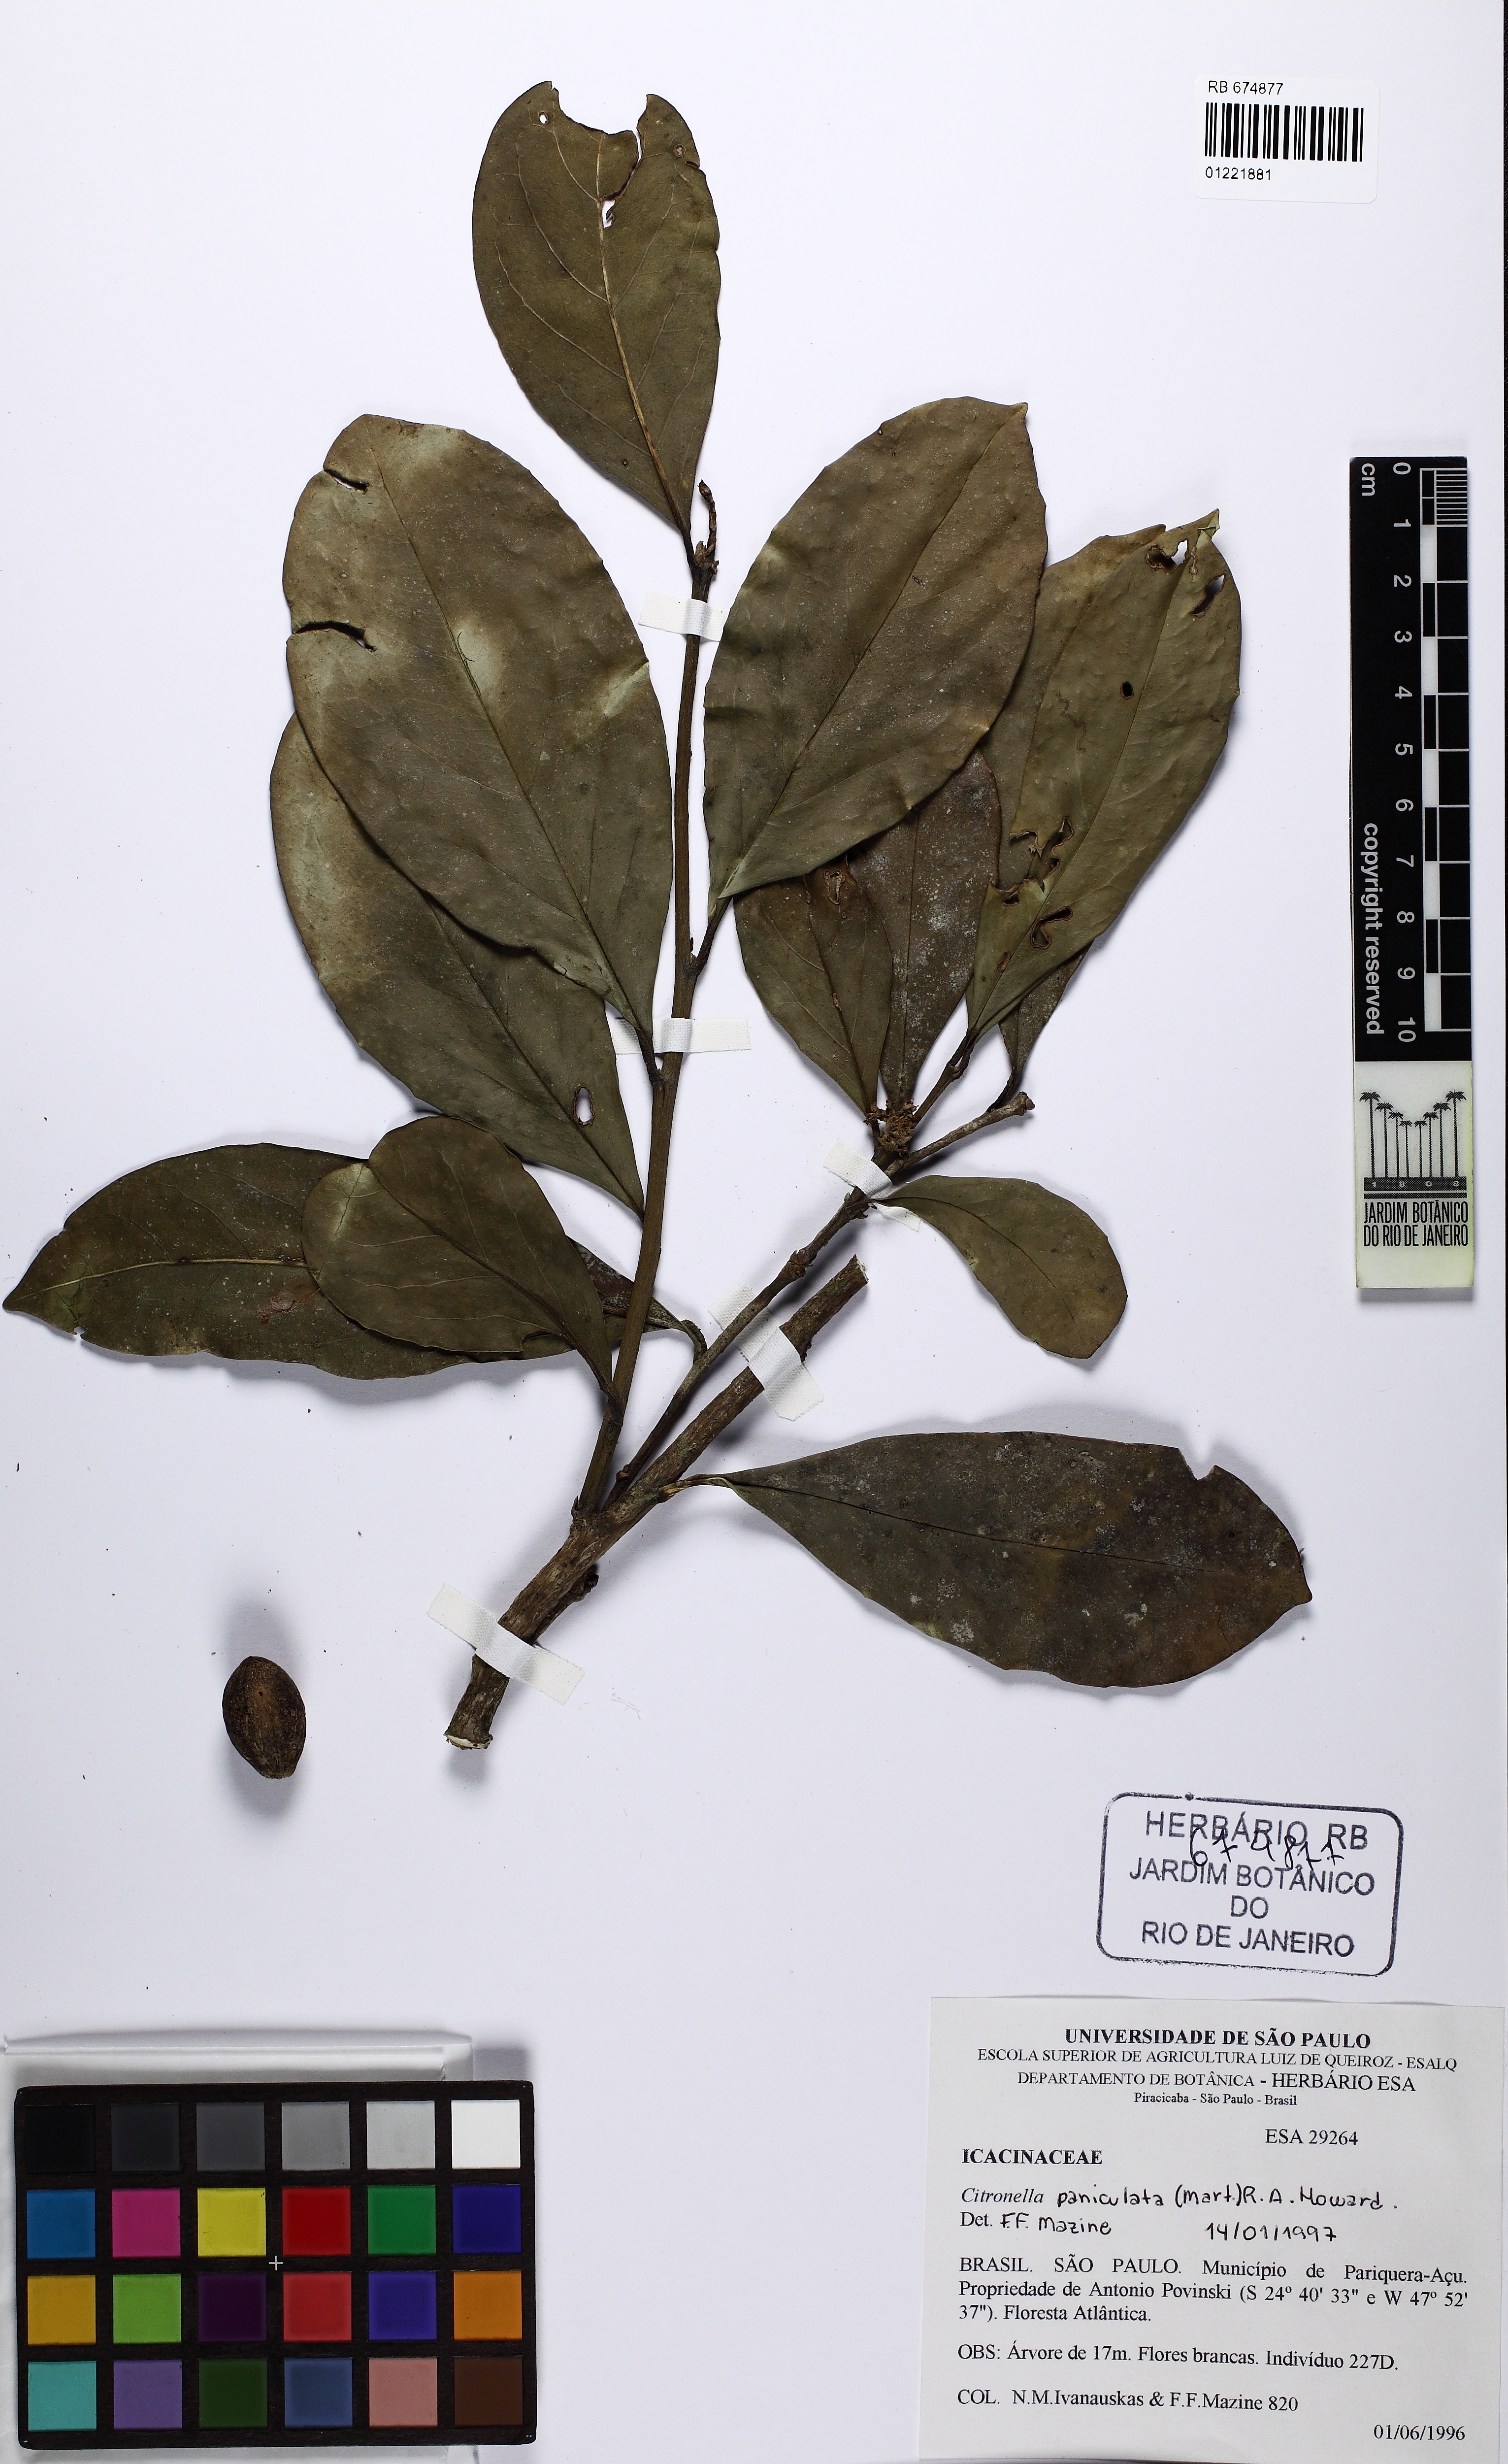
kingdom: Plantae
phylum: Tracheophyta
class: Magnoliopsida
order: Cardiopteridales
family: Cardiopteridaceae
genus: Citronella
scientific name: Citronella paniculata
